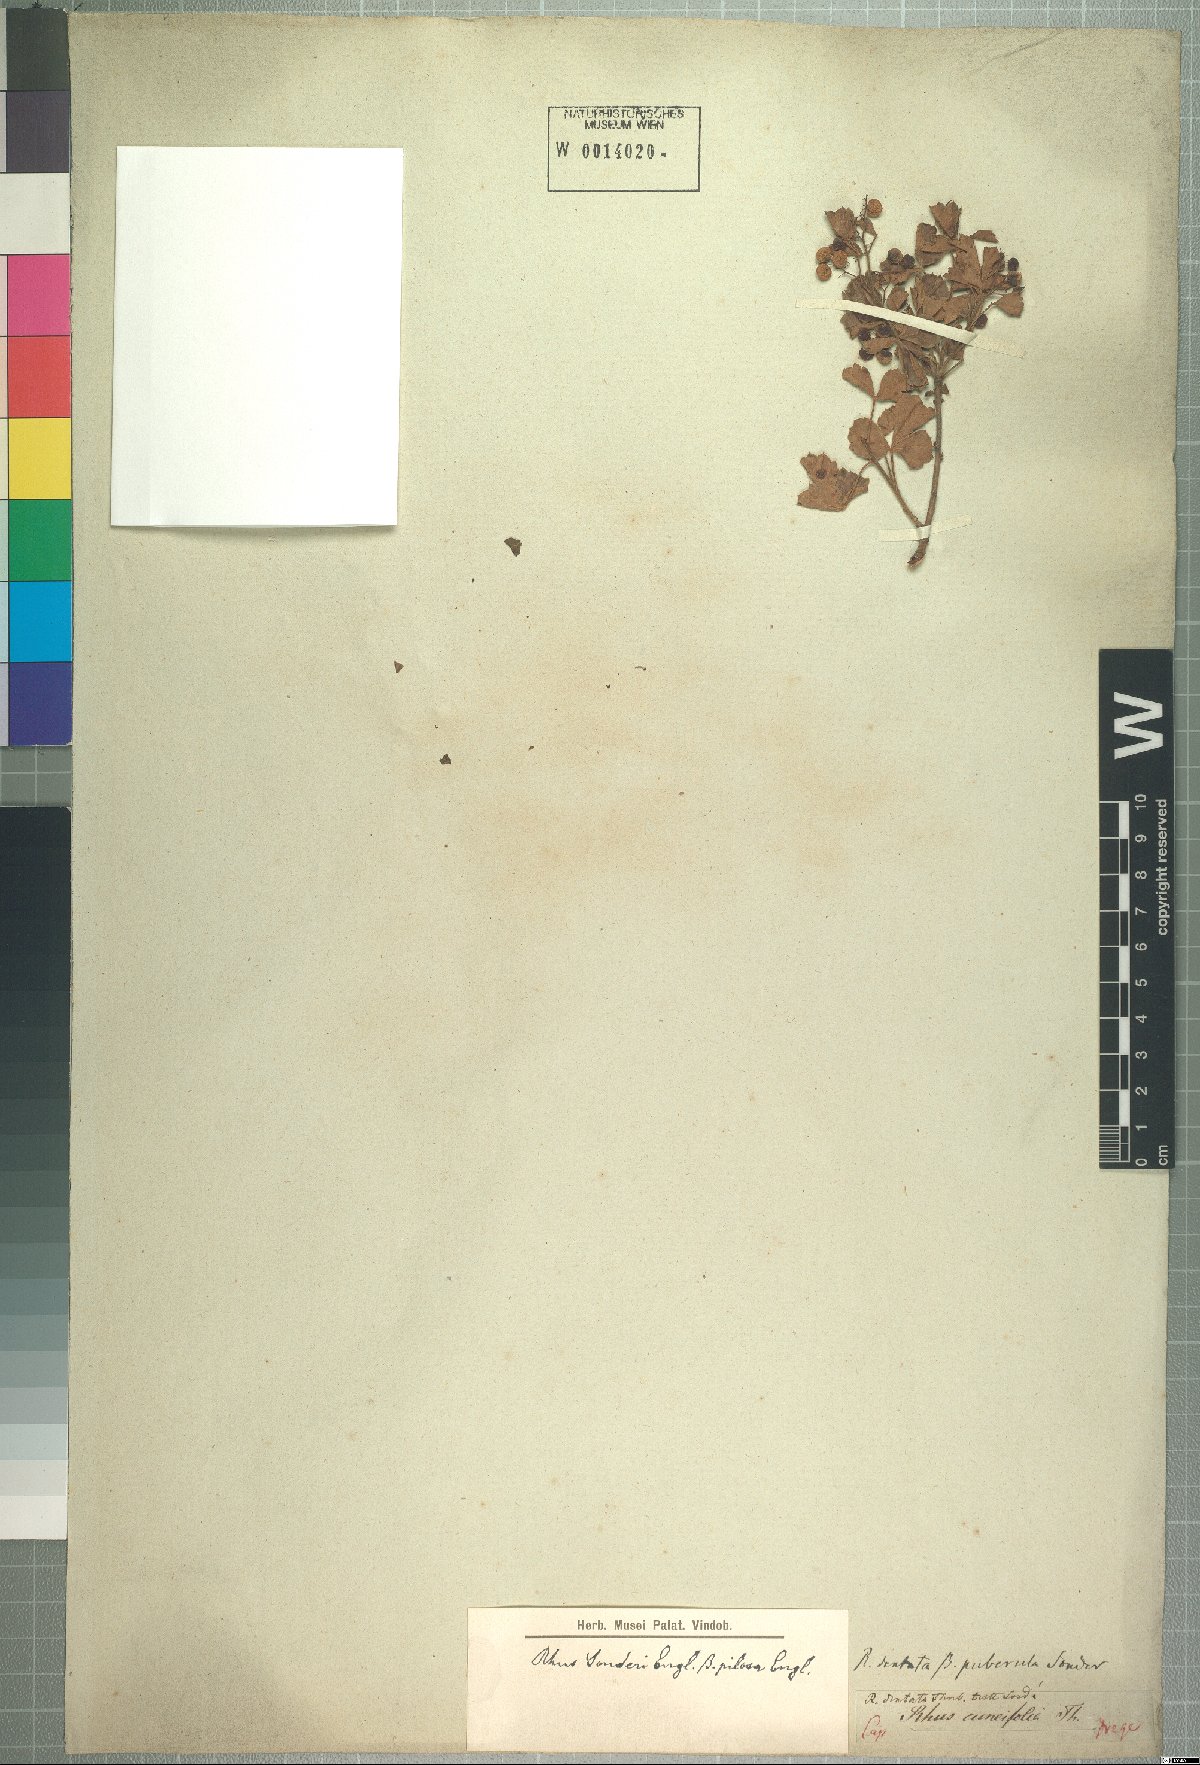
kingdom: Plantae
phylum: Tracheophyta
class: Magnoliopsida
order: Sapindales
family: Anacardiaceae
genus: Searsia
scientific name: Searsia dentata
